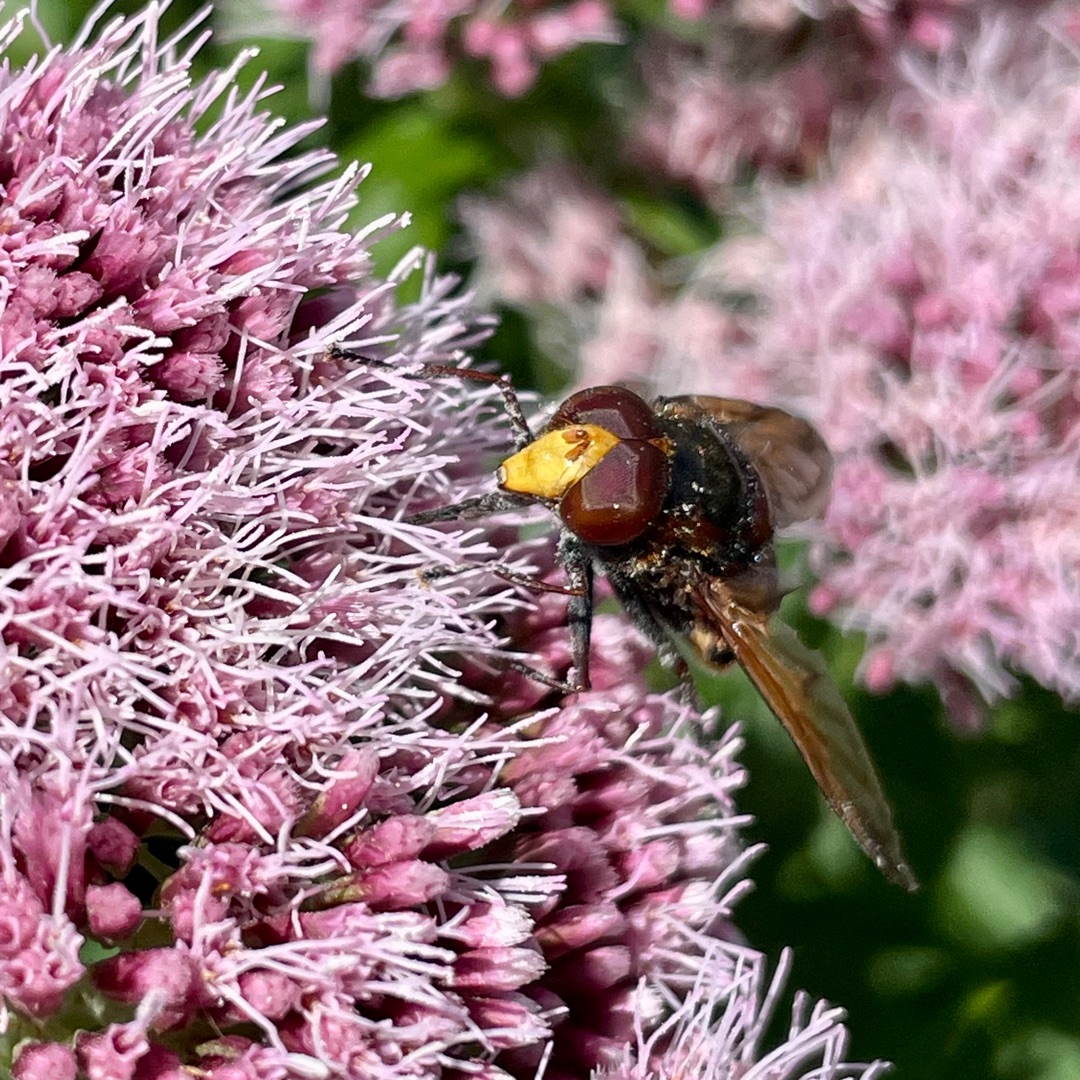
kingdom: Animalia
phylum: Arthropoda
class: Insecta
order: Diptera
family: Syrphidae
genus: Volucella
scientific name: Volucella zonaria
